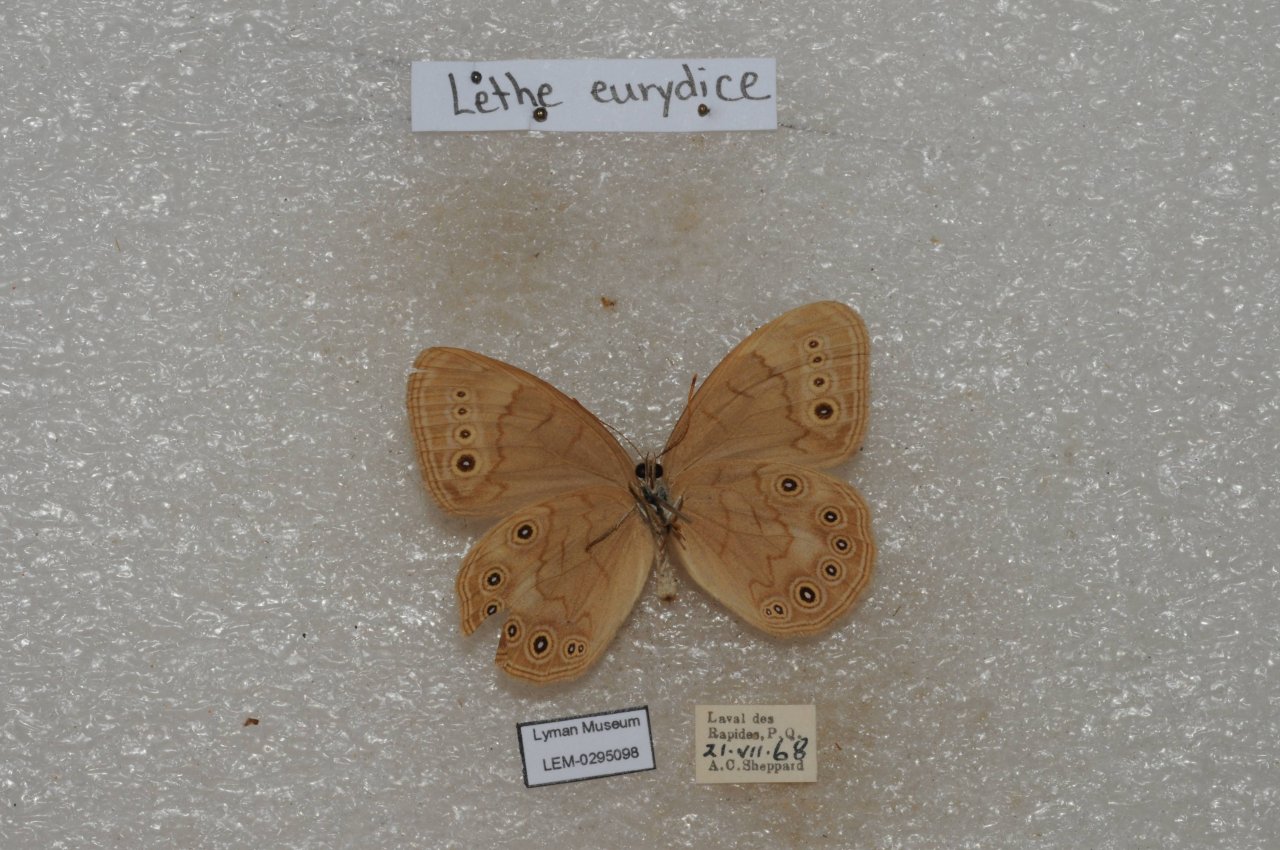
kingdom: Animalia
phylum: Arthropoda
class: Insecta
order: Lepidoptera
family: Nymphalidae
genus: Lethe
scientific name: Lethe eurydice
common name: Eyed Brown
